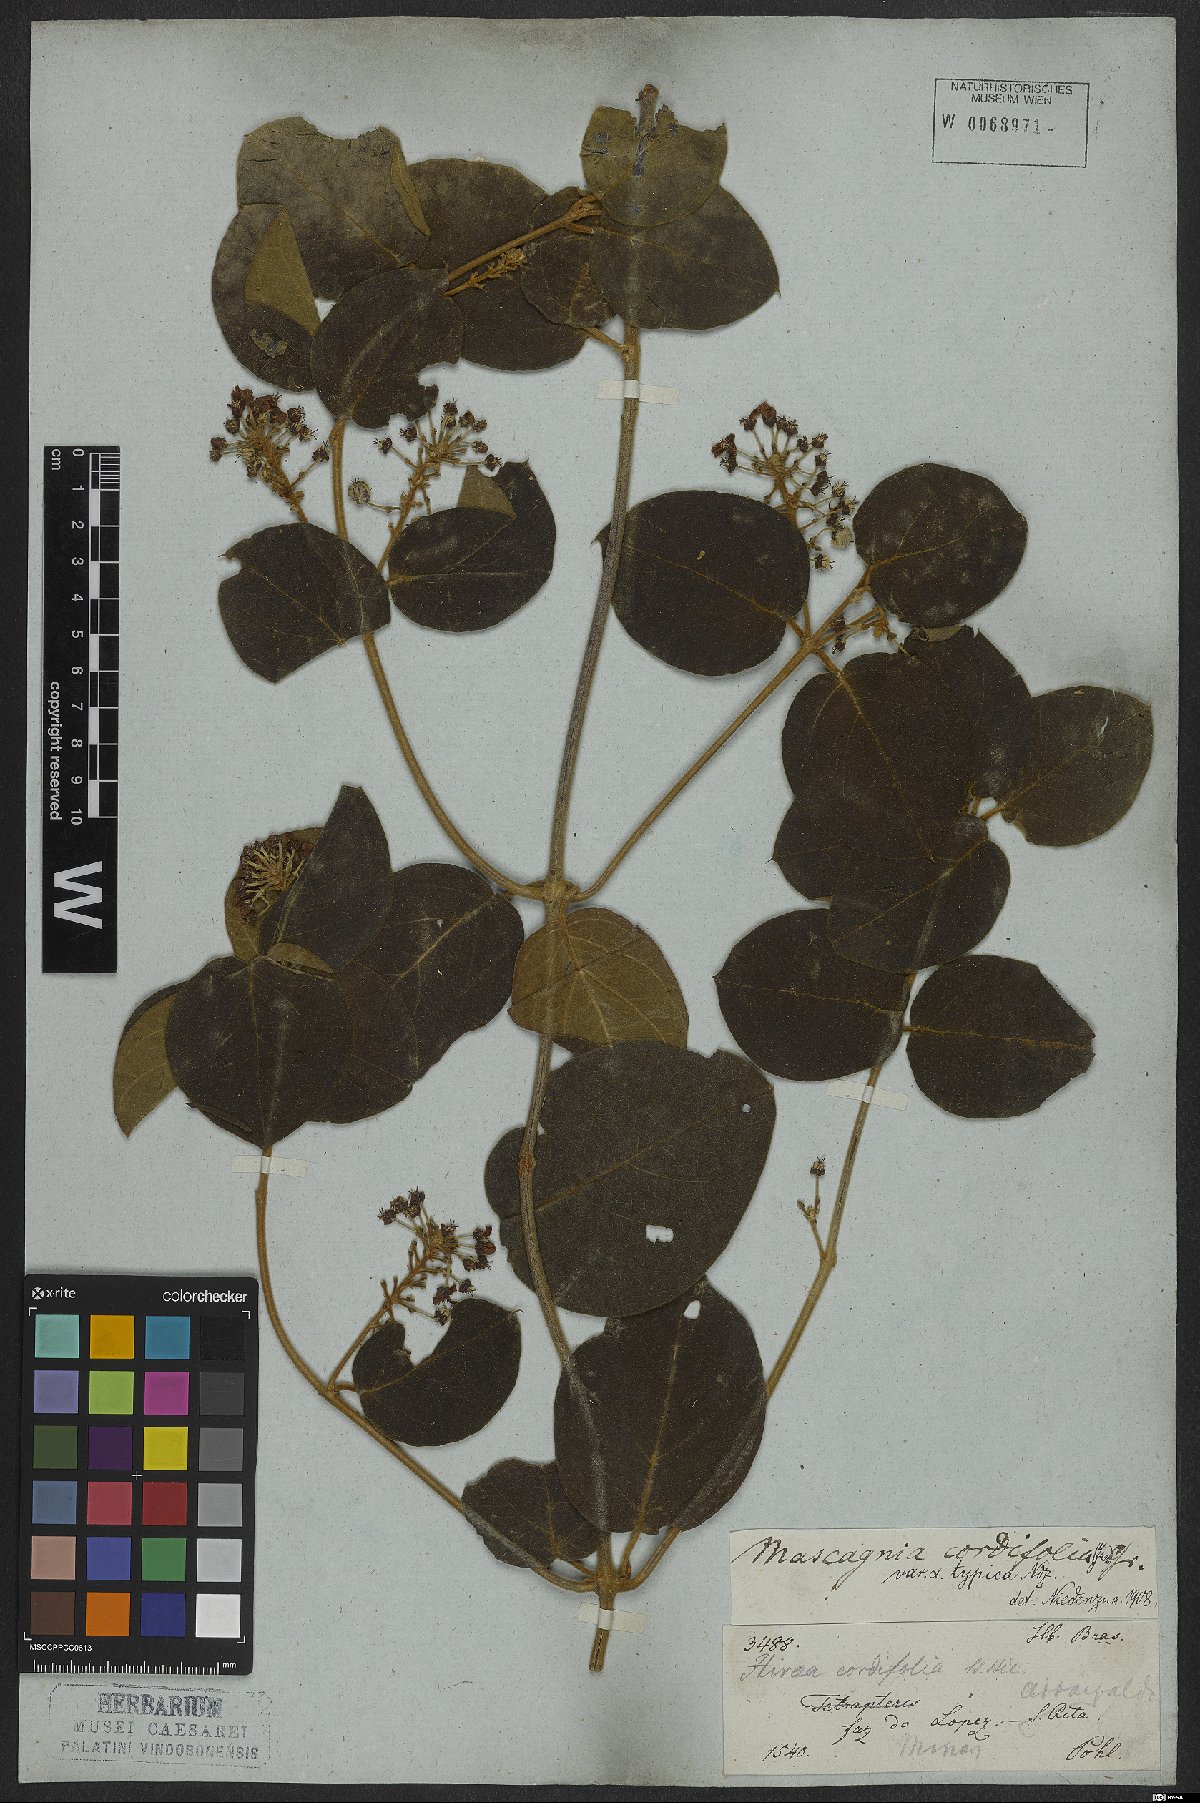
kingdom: Plantae
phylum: Tracheophyta
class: Magnoliopsida
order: Malpighiales
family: Malpighiaceae
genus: Mascagnia
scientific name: Mascagnia cordifolia
